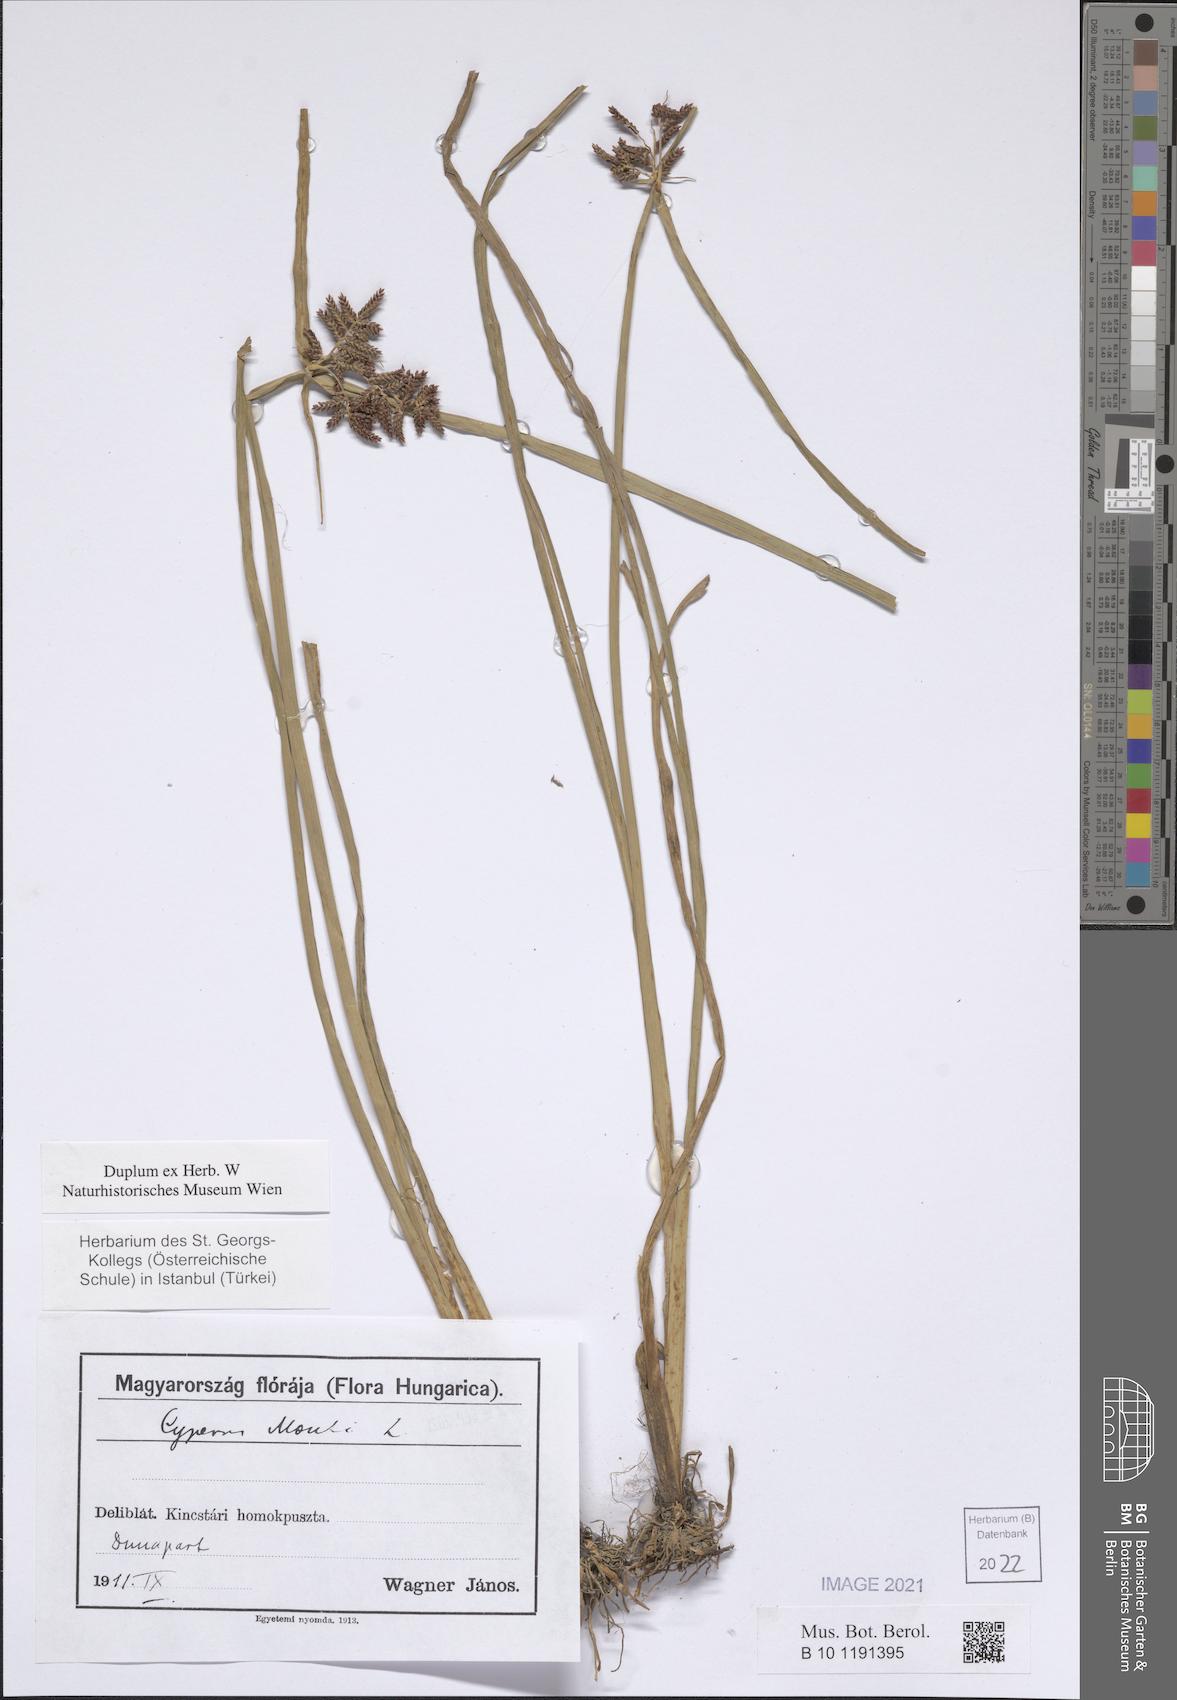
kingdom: Plantae
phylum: Tracheophyta
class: Liliopsida
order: Poales
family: Cyperaceae
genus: Cyperus
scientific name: Cyperus serotinus
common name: Tidalmarsh flatsedge
